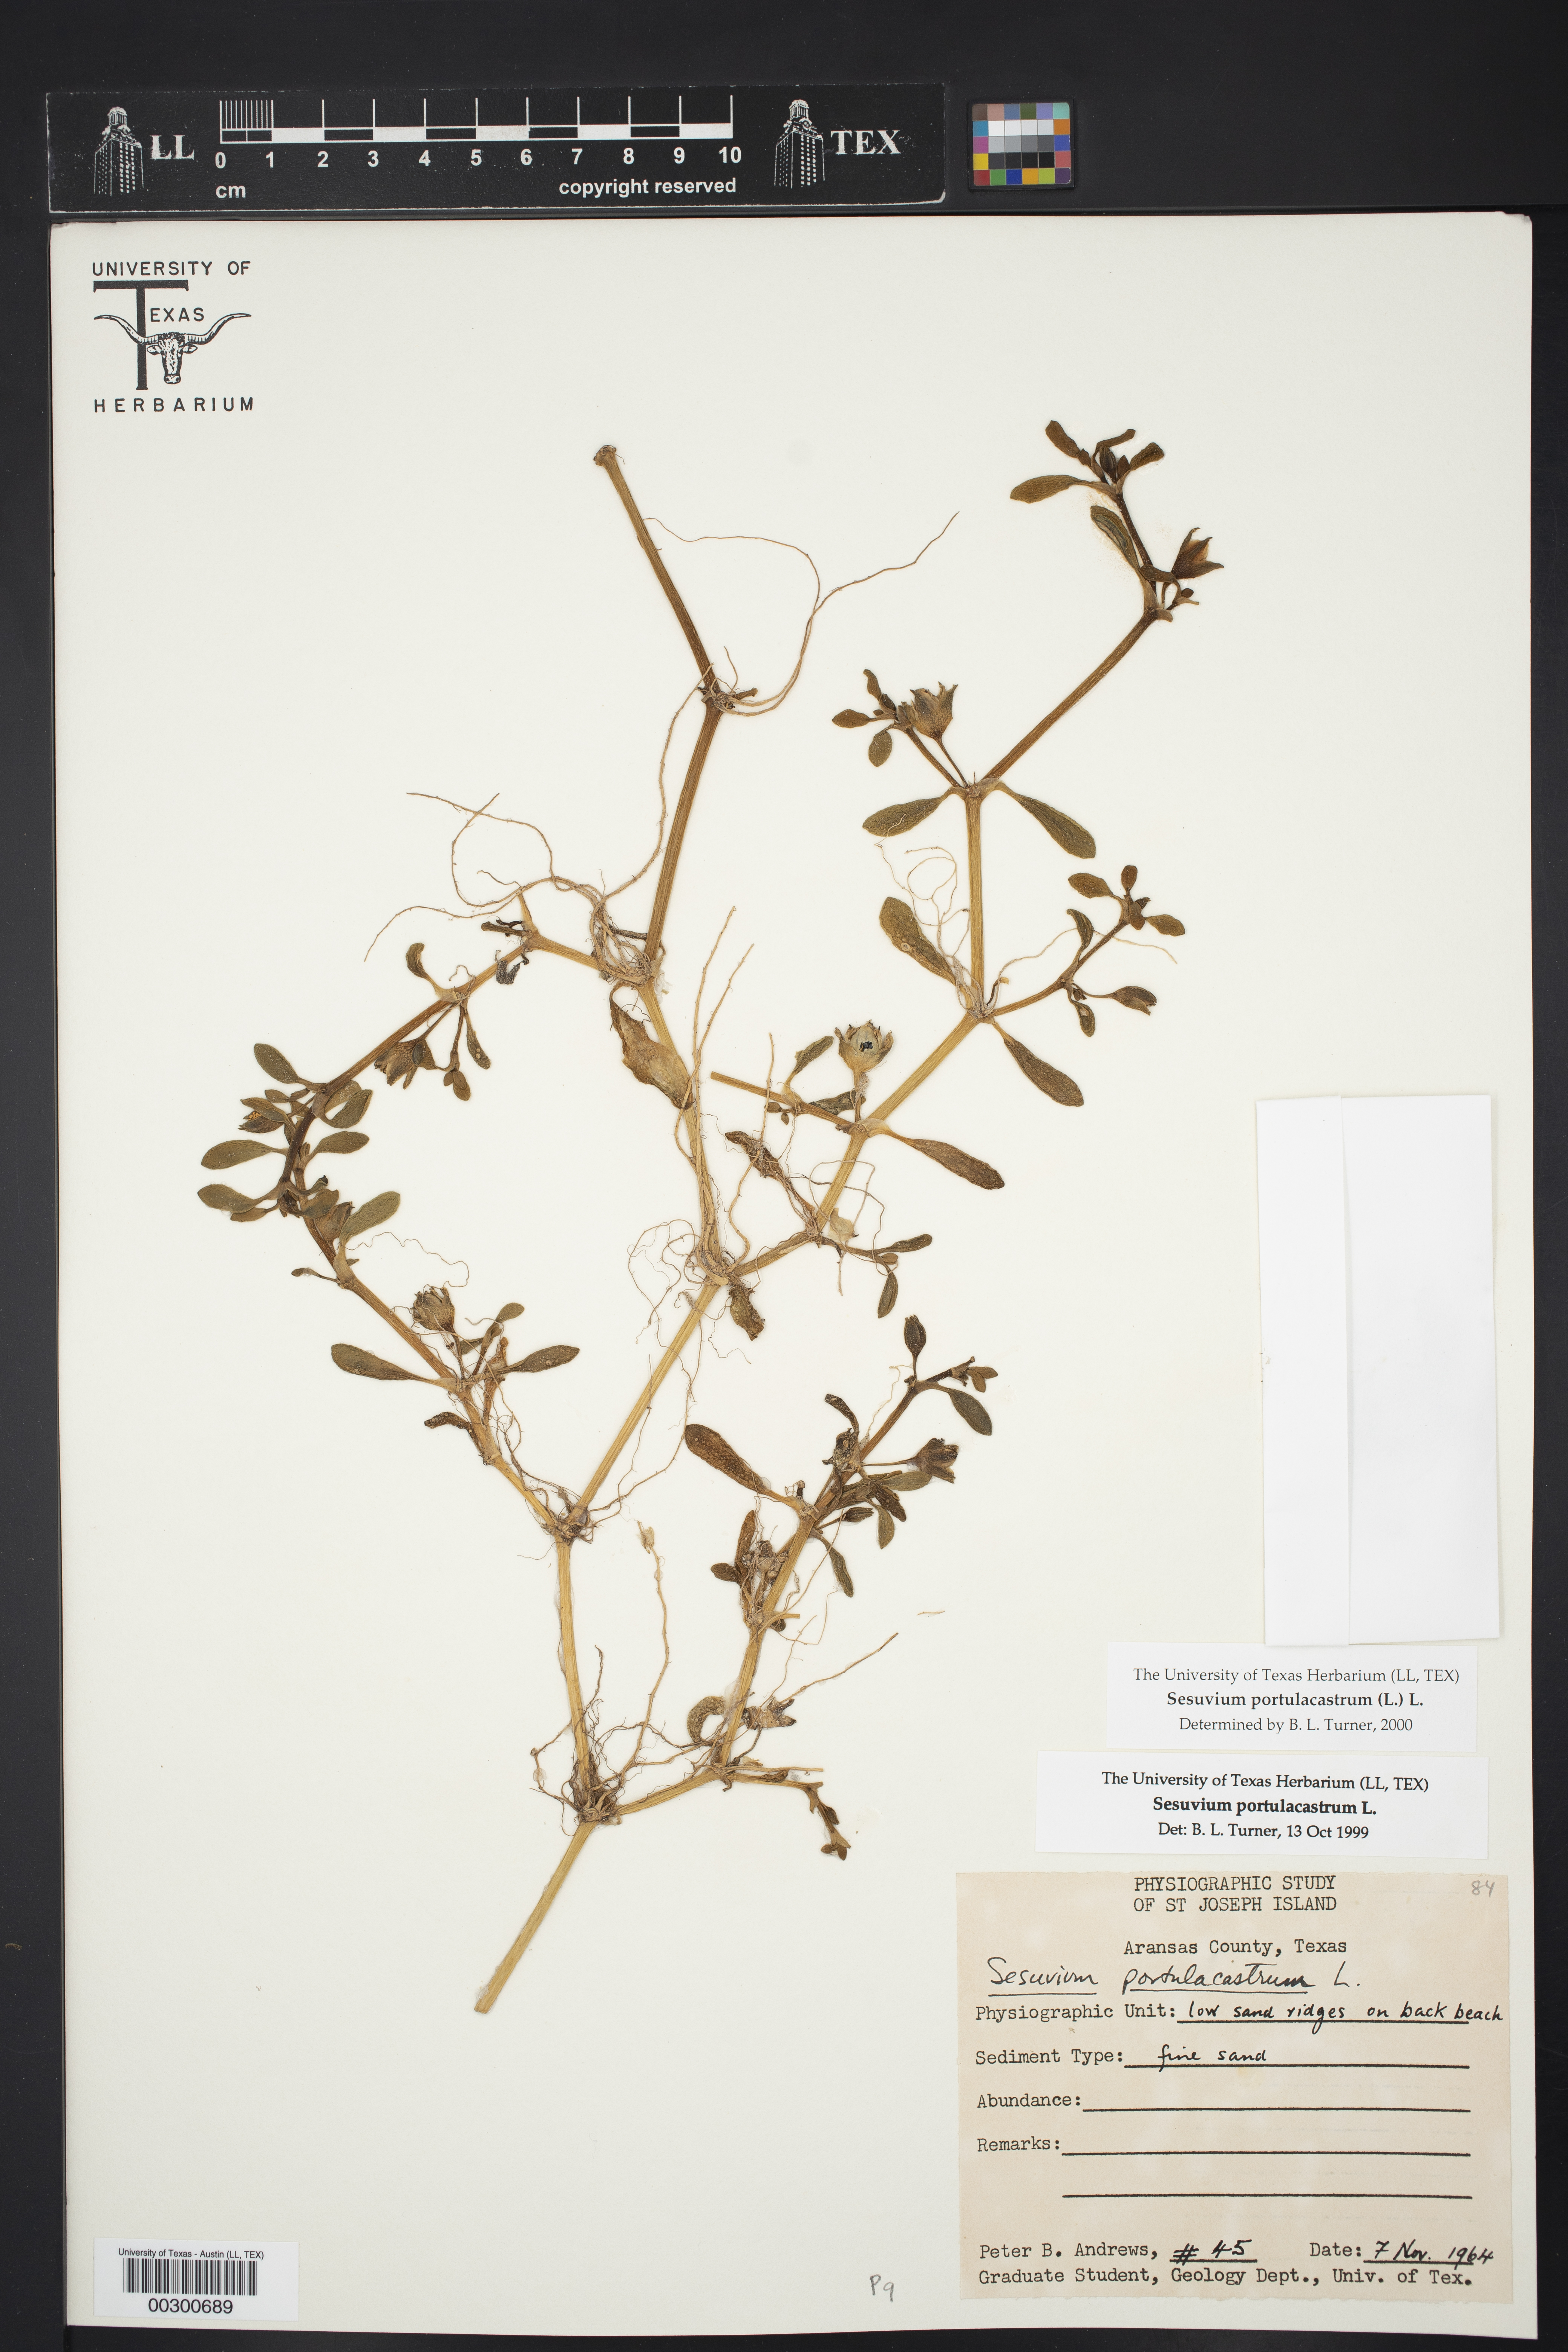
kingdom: Plantae
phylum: Tracheophyta
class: Magnoliopsida
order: Caryophyllales
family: Aizoaceae
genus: Sesuvium
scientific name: Sesuvium portulacastrum
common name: Sea-purslane
